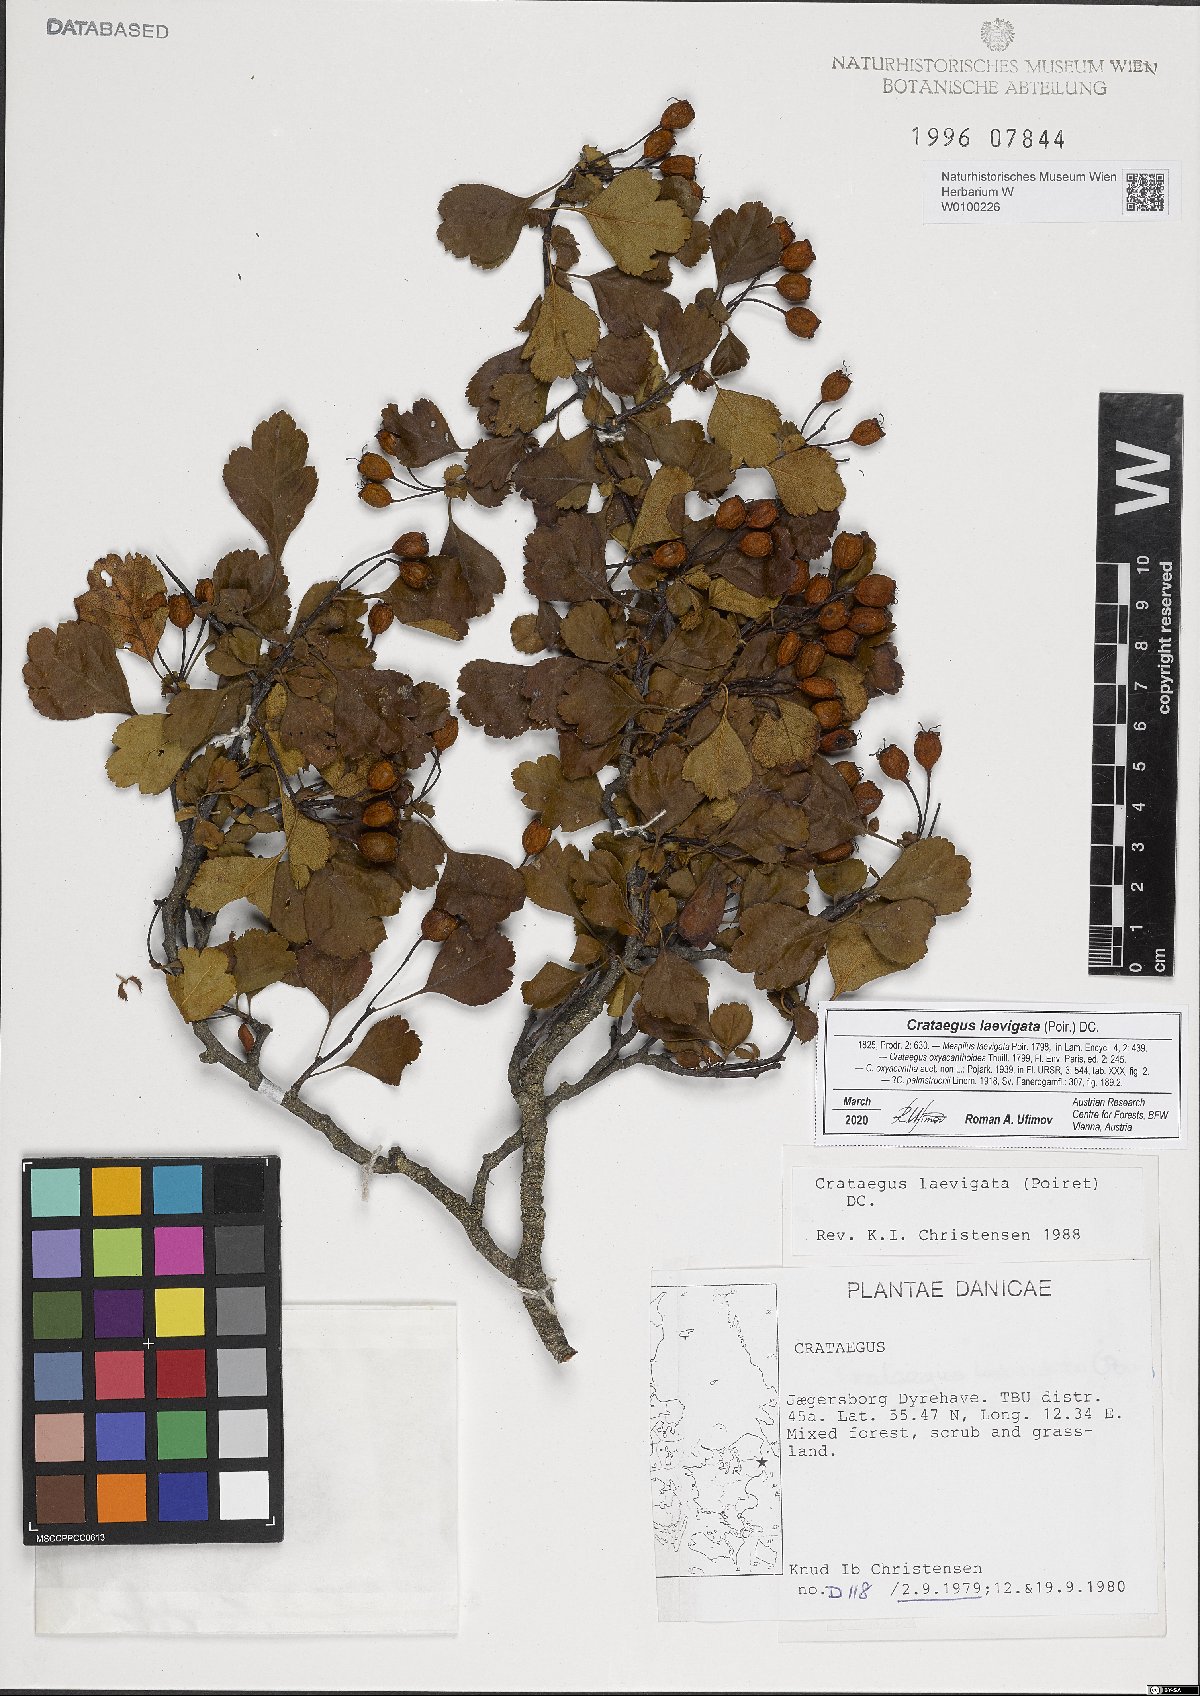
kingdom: Plantae
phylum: Tracheophyta
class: Magnoliopsida
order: Rosales
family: Rosaceae
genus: Crataegus
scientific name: Crataegus laevigata
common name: Midland hawthorn
